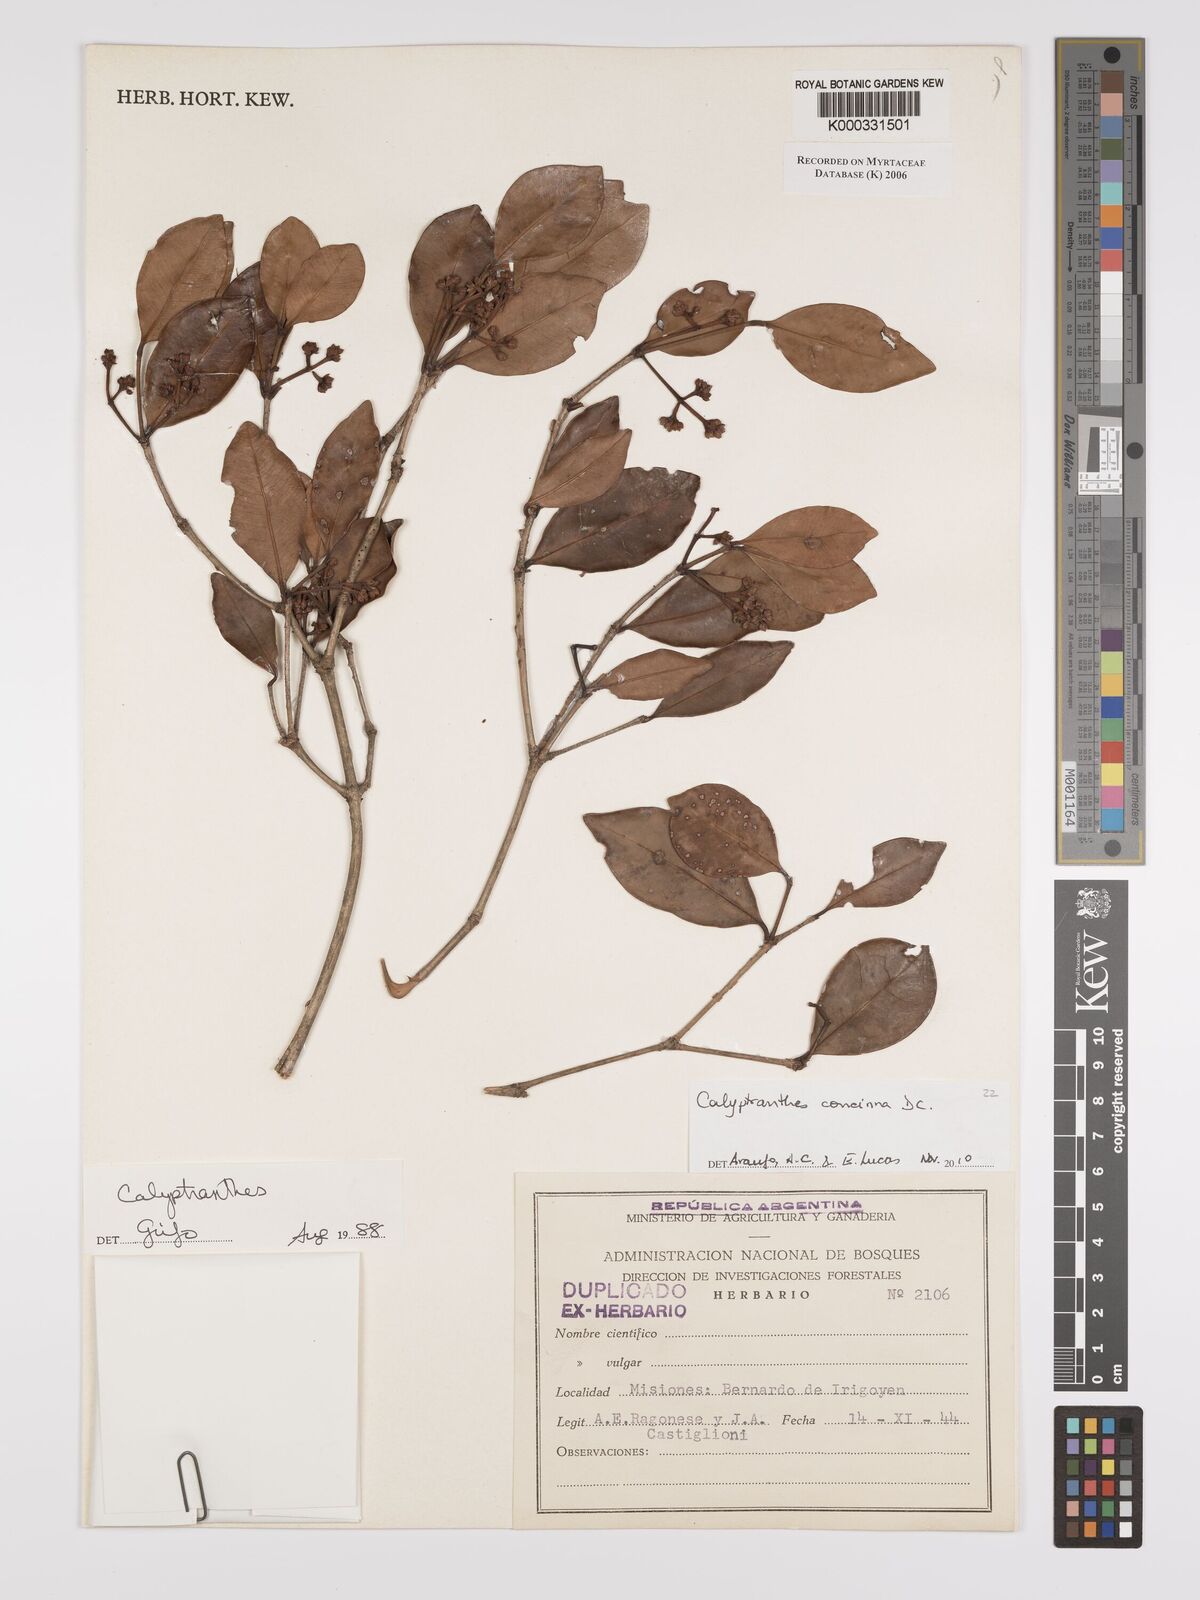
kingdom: Plantae
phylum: Tracheophyta
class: Magnoliopsida
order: Myrtales
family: Myrtaceae
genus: Calyptranthes
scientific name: Calyptranthes
